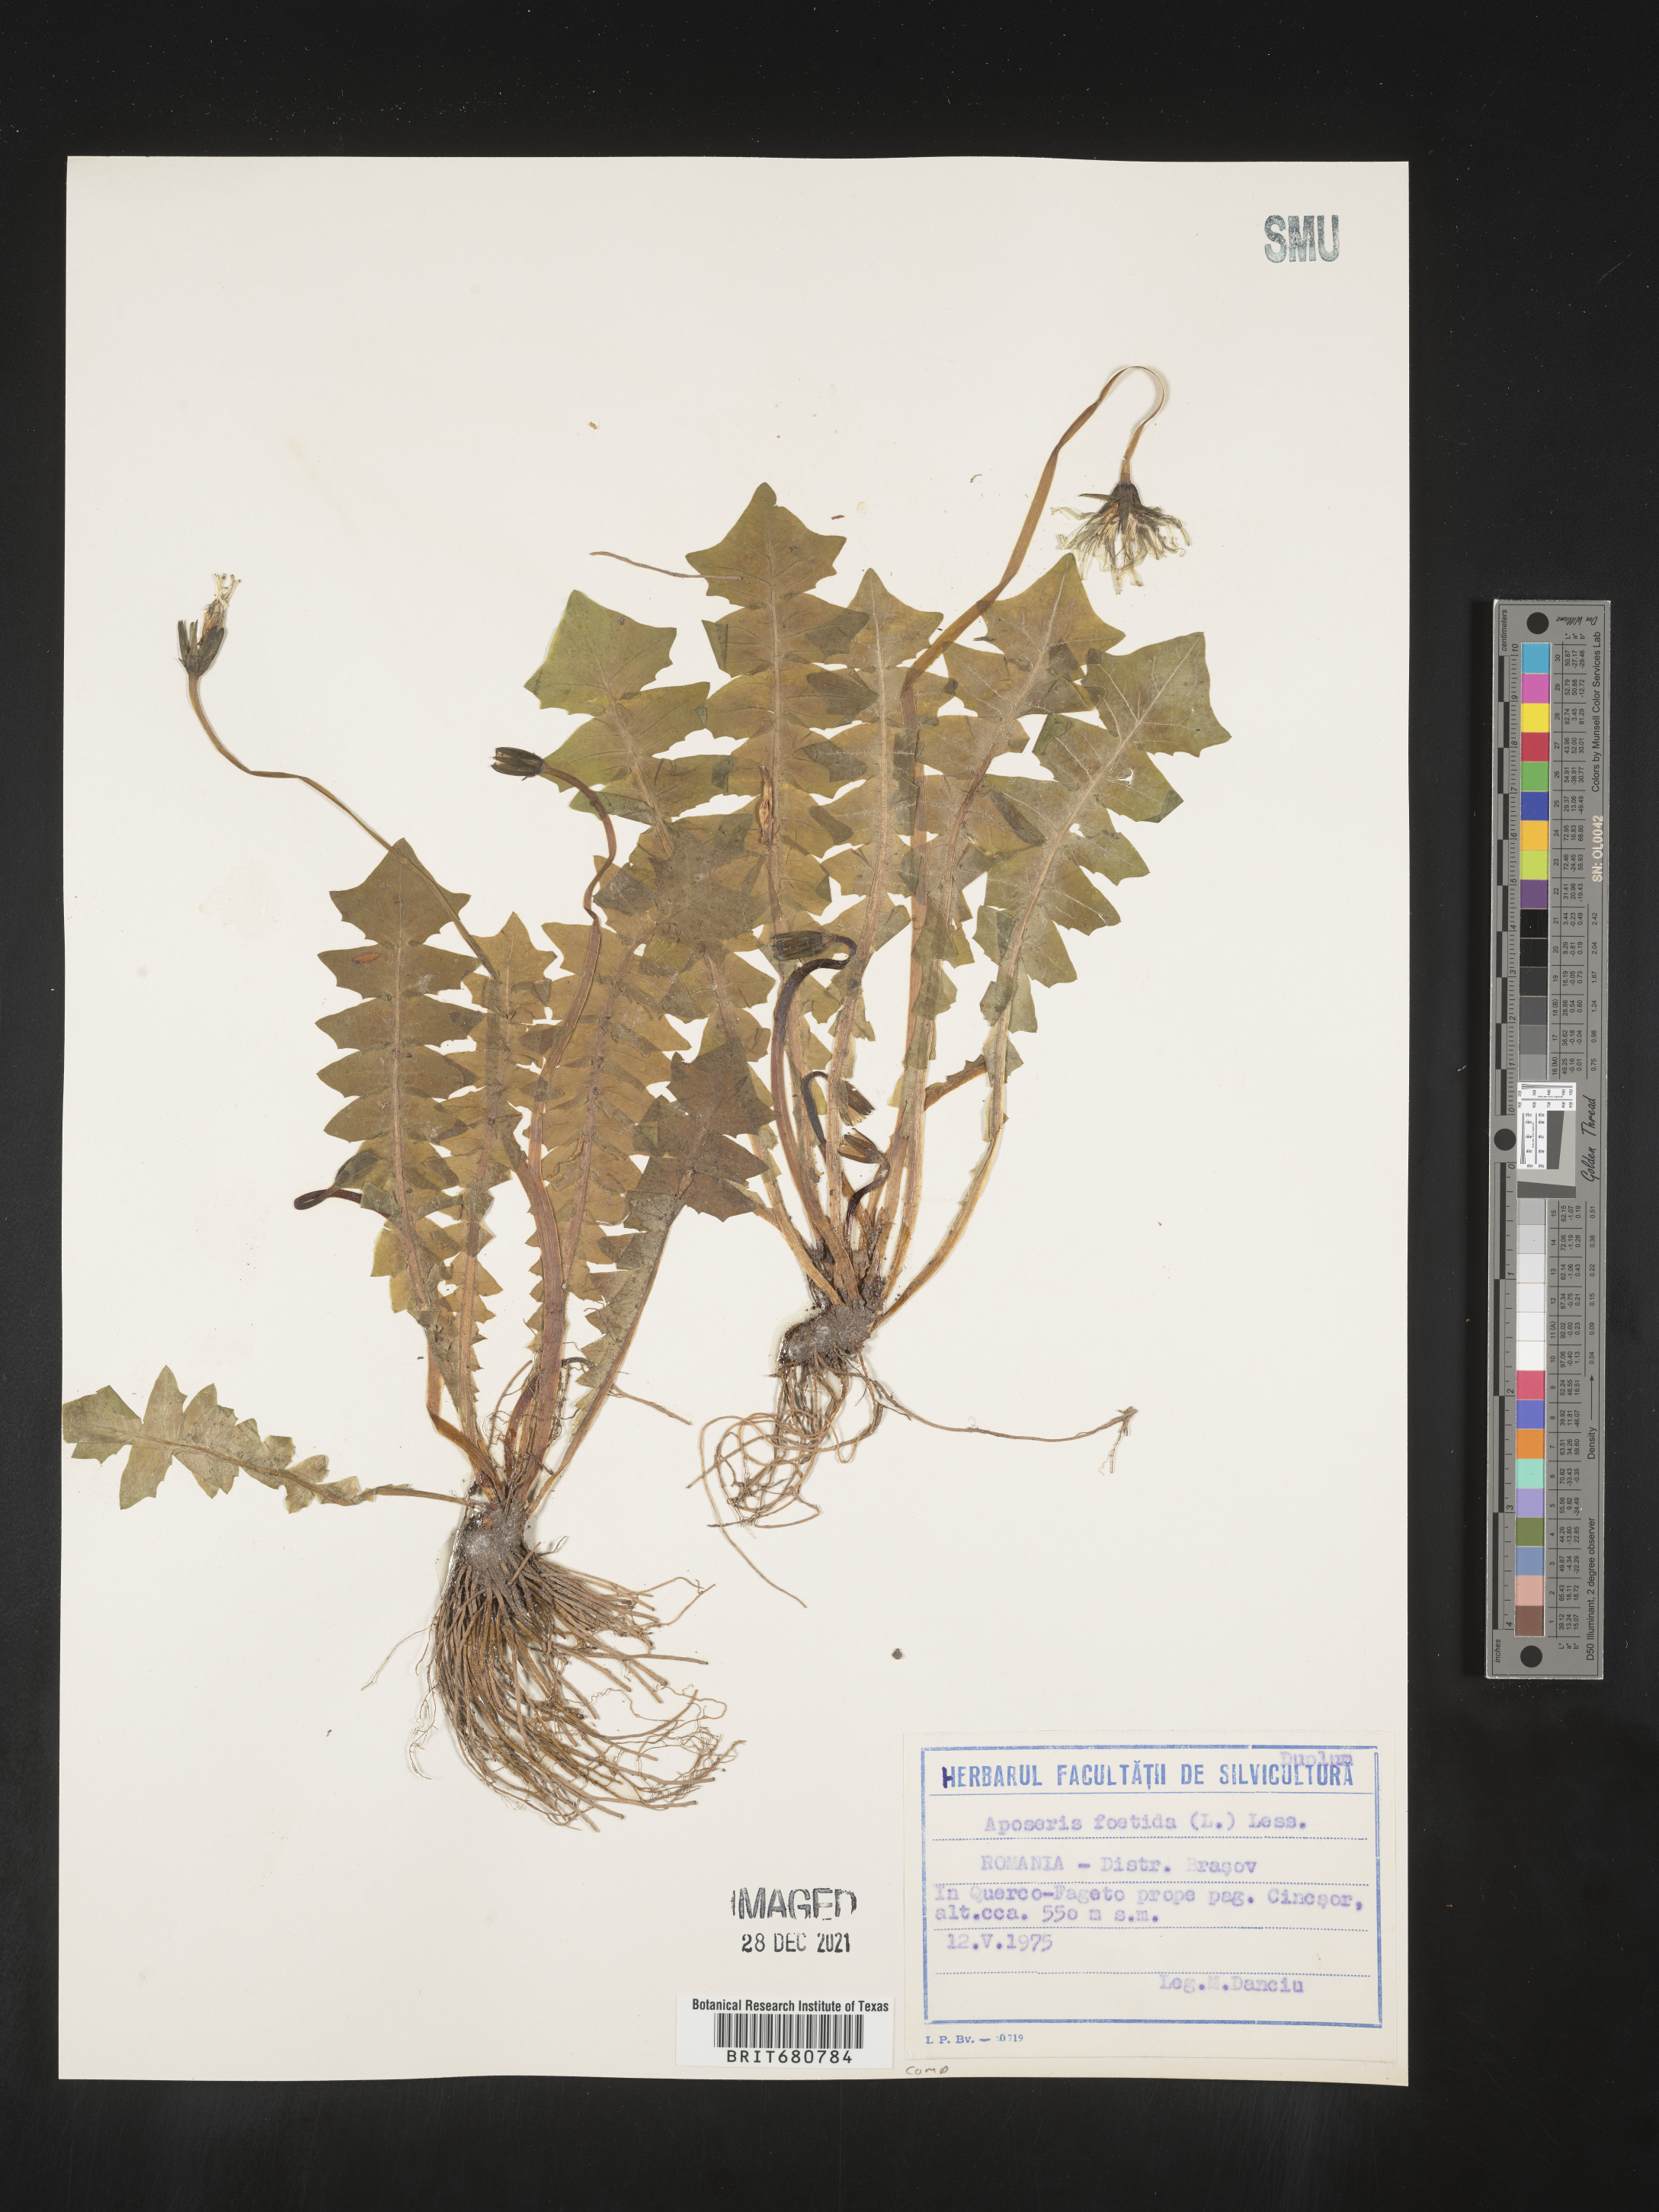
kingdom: Plantae
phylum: Tracheophyta
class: Magnoliopsida
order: Asterales
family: Asteraceae
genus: Aposeris
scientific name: Aposeris
